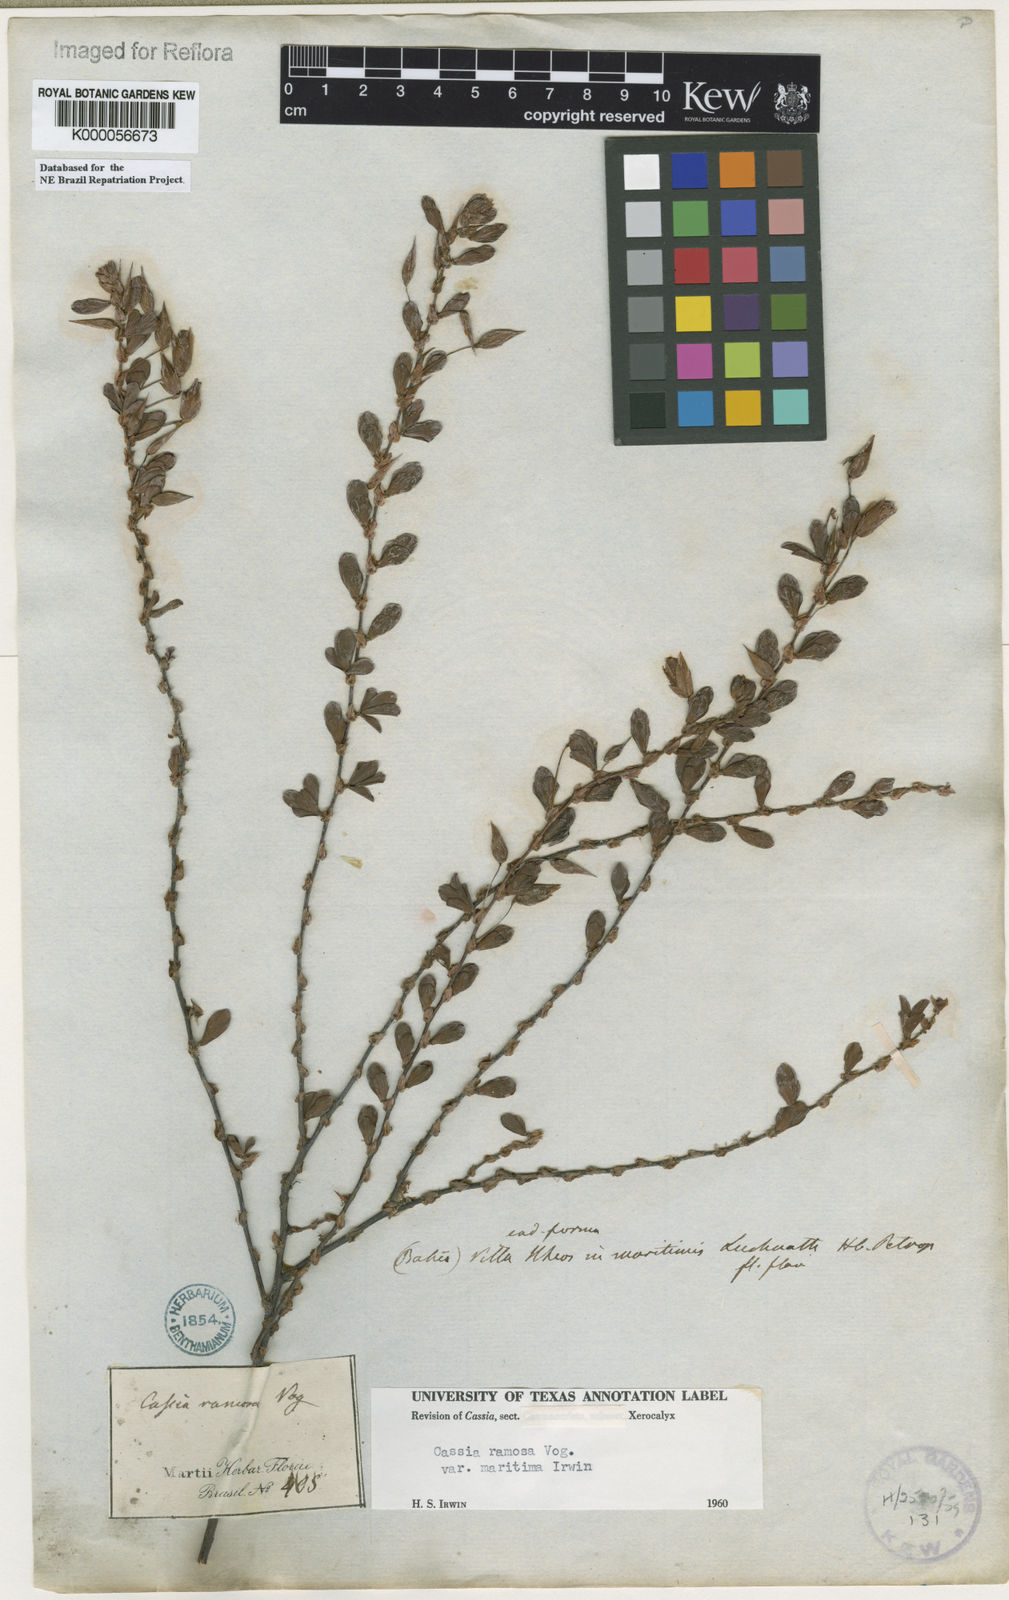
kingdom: Plantae
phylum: Tracheophyta
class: Magnoliopsida
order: Fabales
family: Fabaceae
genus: Chamaecrista
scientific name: Chamaecrista ramosa
